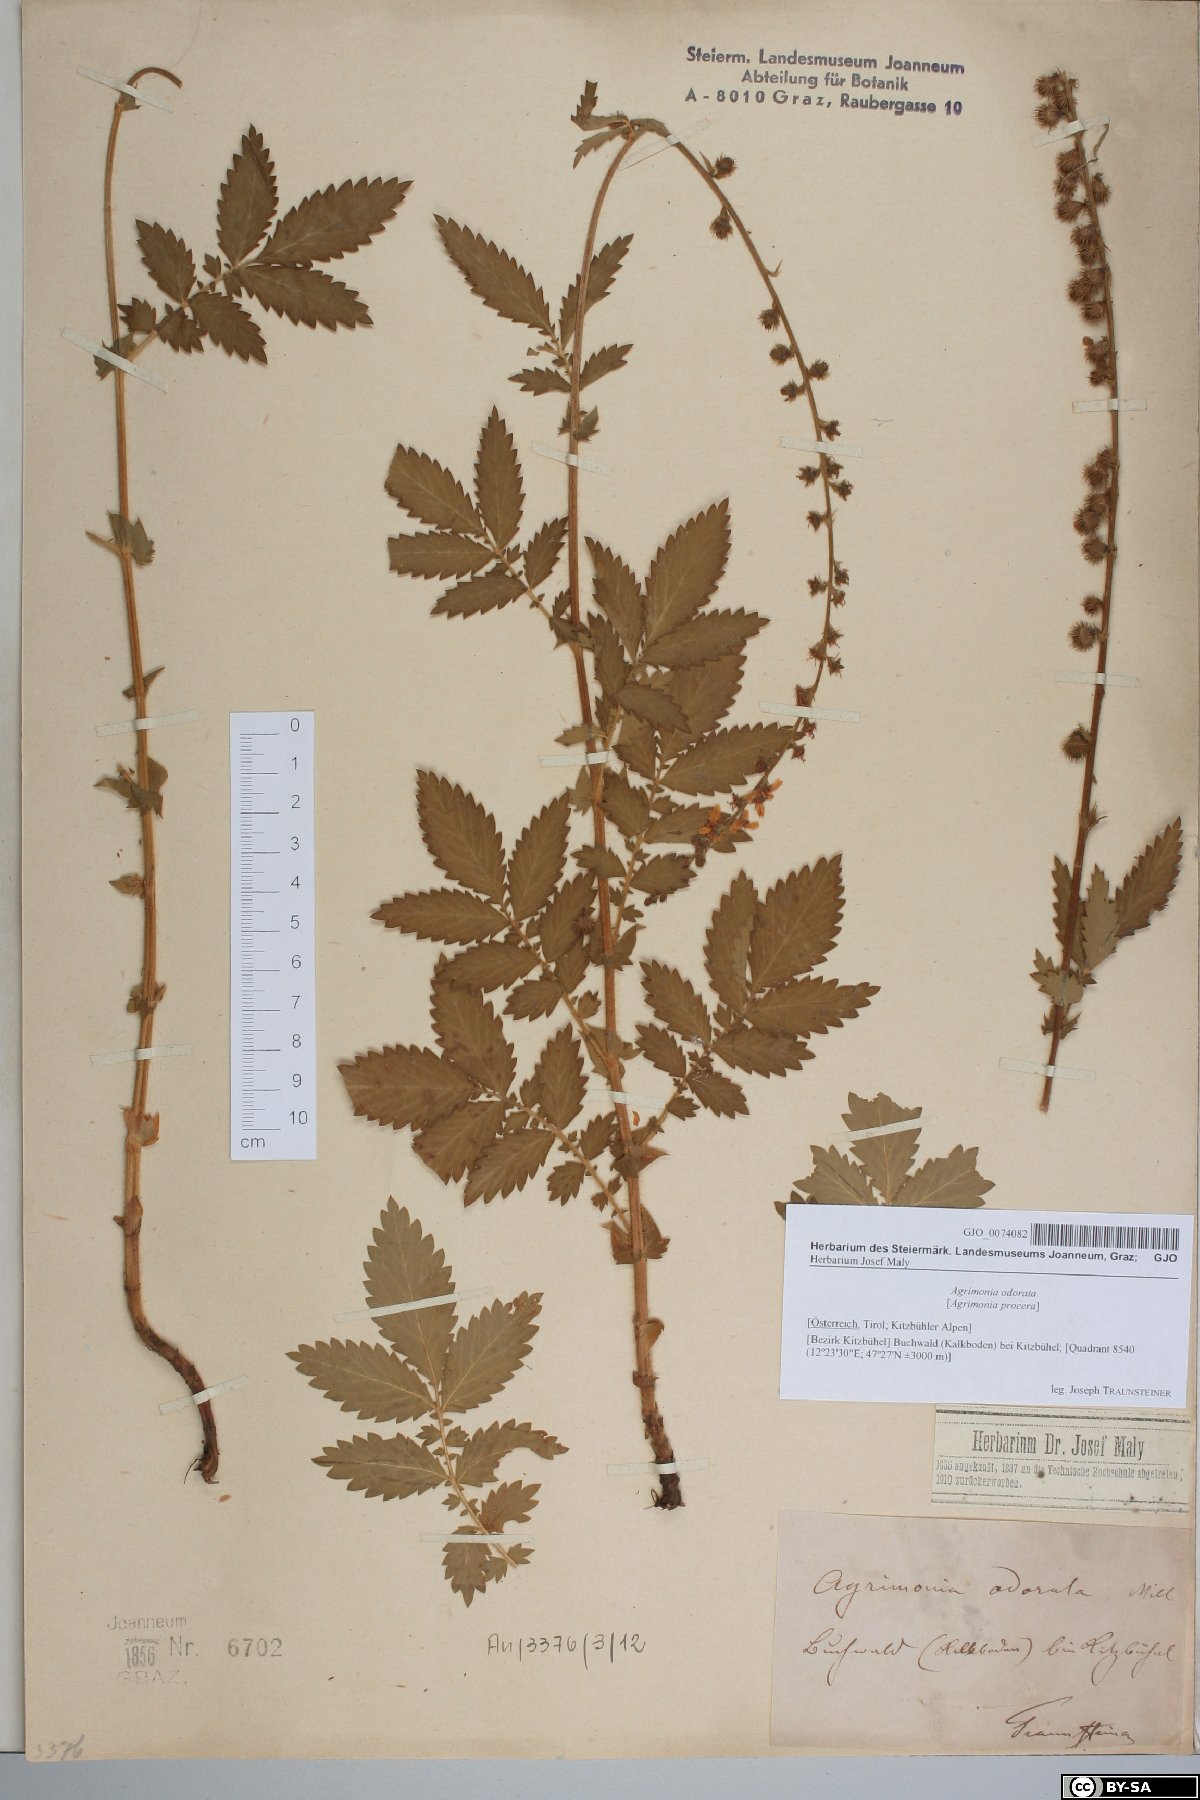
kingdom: Plantae
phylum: Tracheophyta
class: Magnoliopsida
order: Rosales
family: Rosaceae
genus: Agrimonia
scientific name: Agrimonia repens
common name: Creeping agrimony
